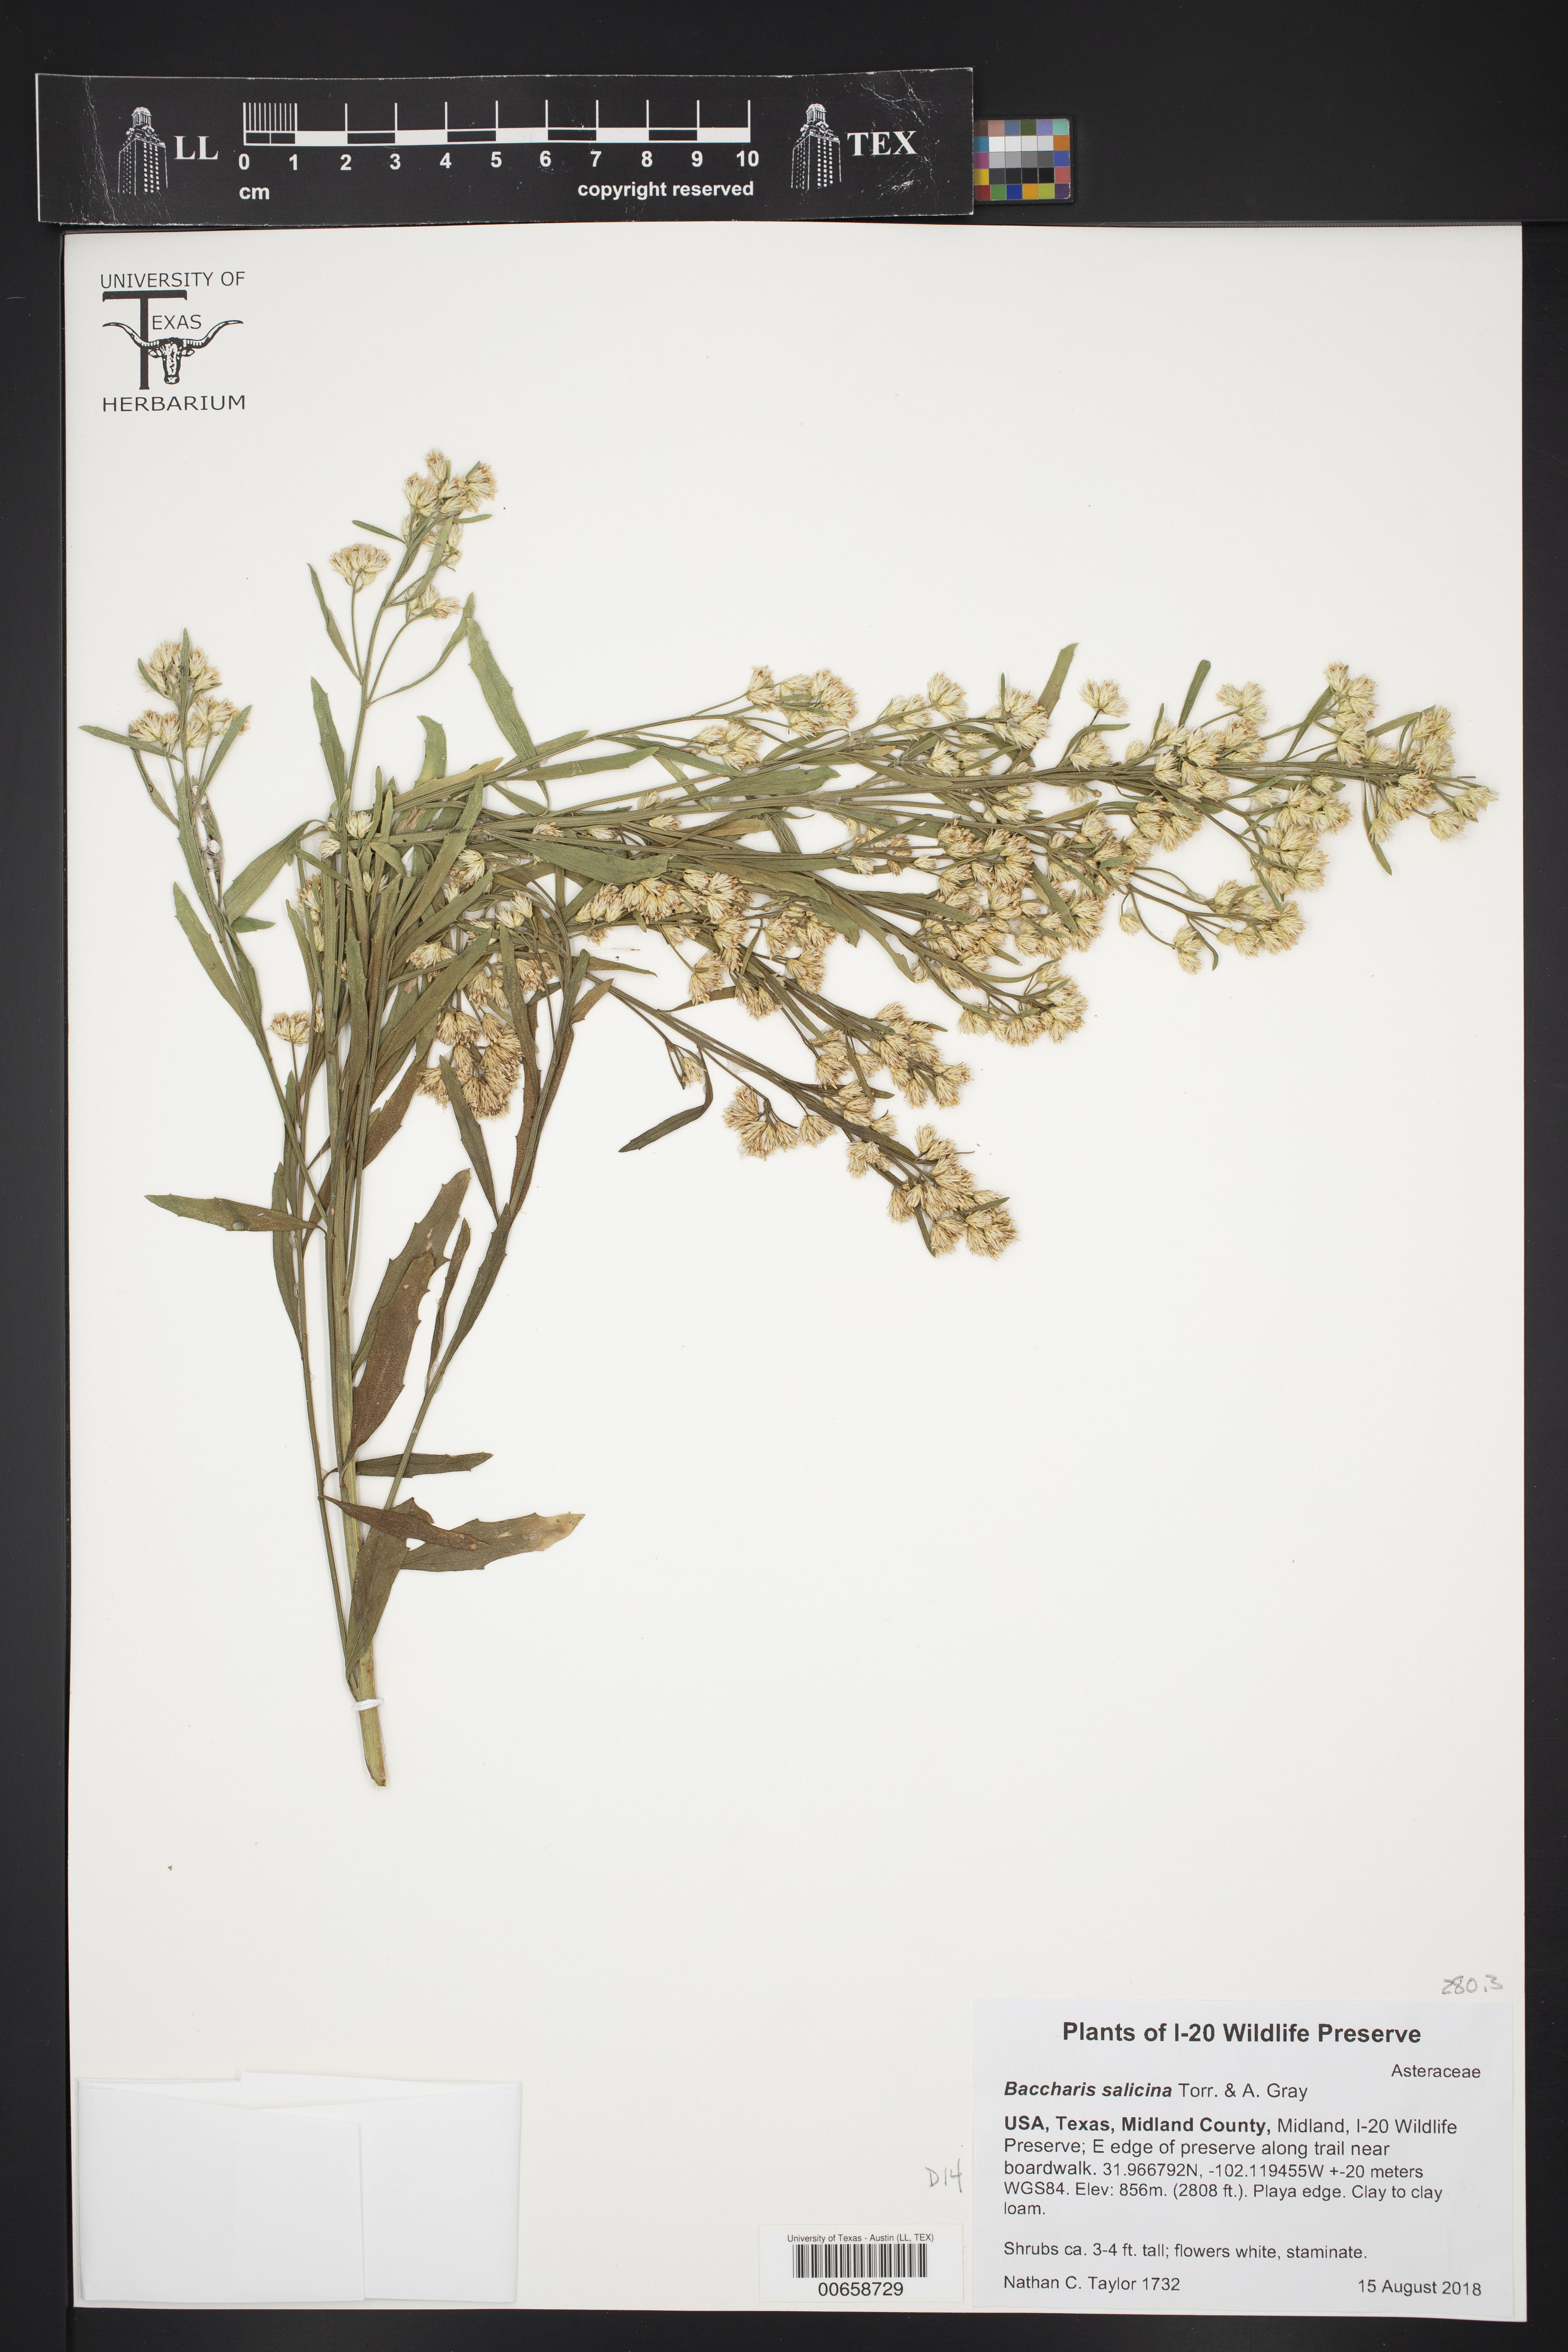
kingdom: Plantae
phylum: Tracheophyta
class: Magnoliopsida
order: Asterales
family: Asteraceae
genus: Baccharis
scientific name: Baccharis salicina
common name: Willow baccharis
